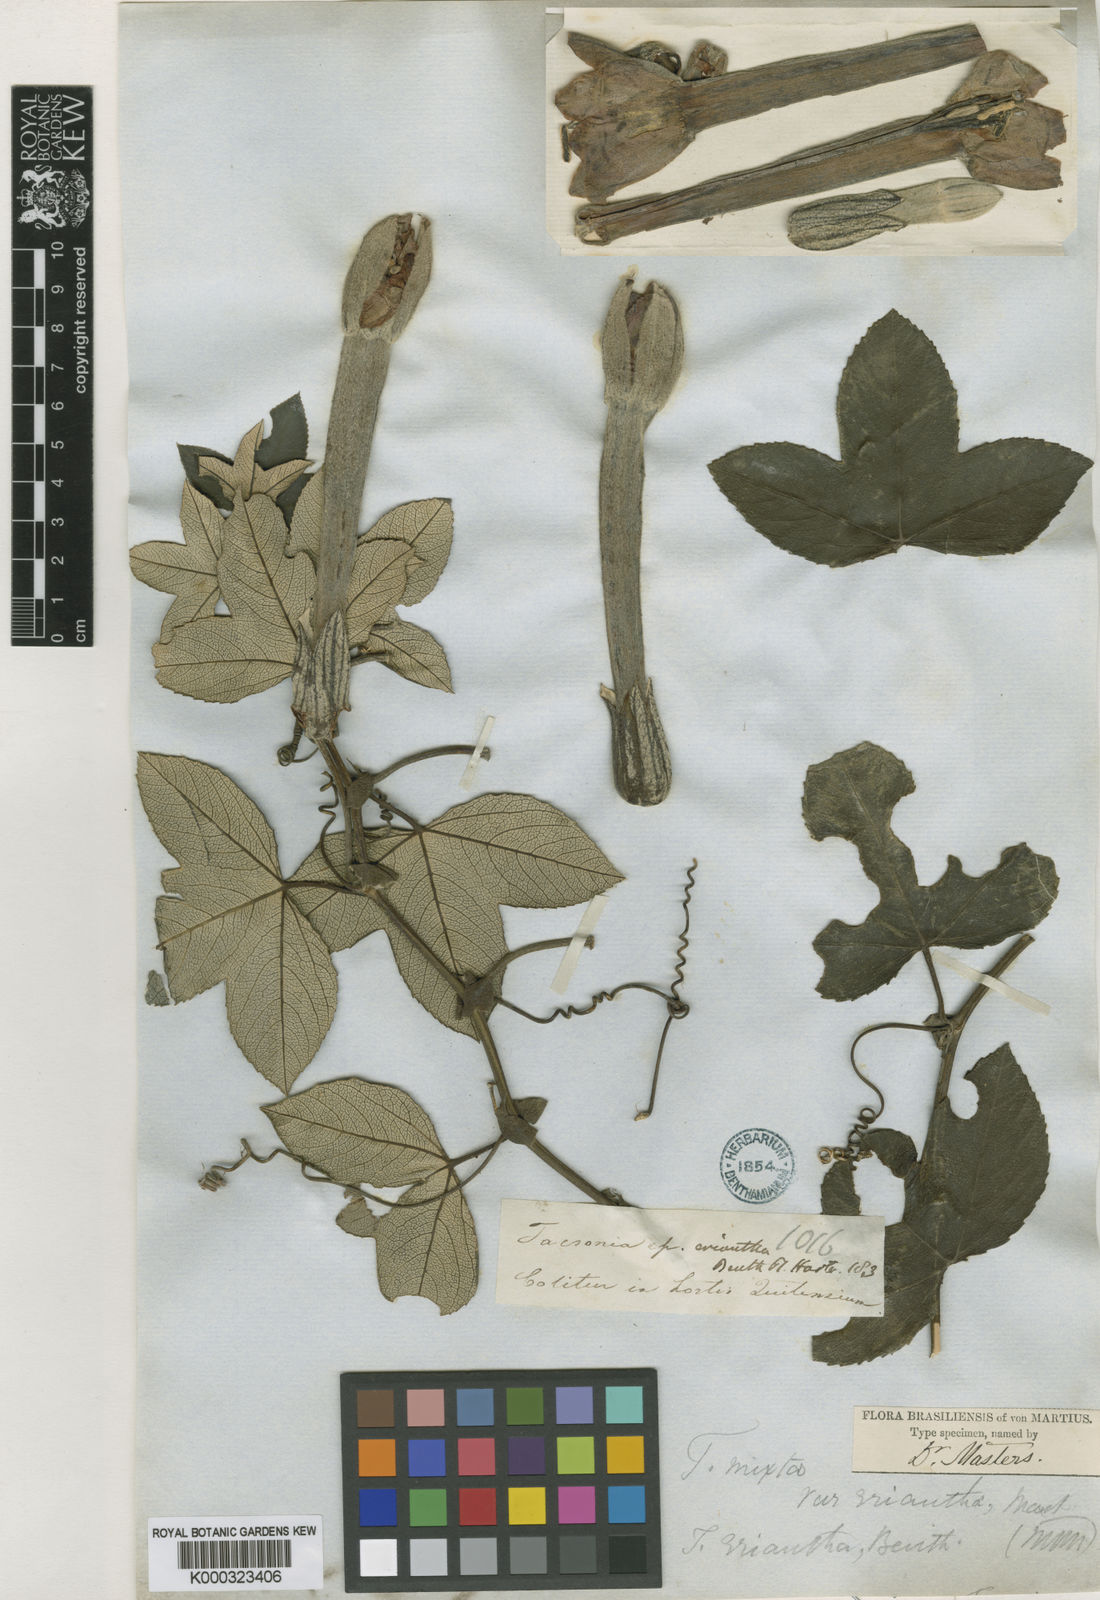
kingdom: Plantae
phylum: Tracheophyta
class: Magnoliopsida
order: Malpighiales
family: Passifloraceae
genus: Passiflora
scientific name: Passiflora mixta
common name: Passion flower
